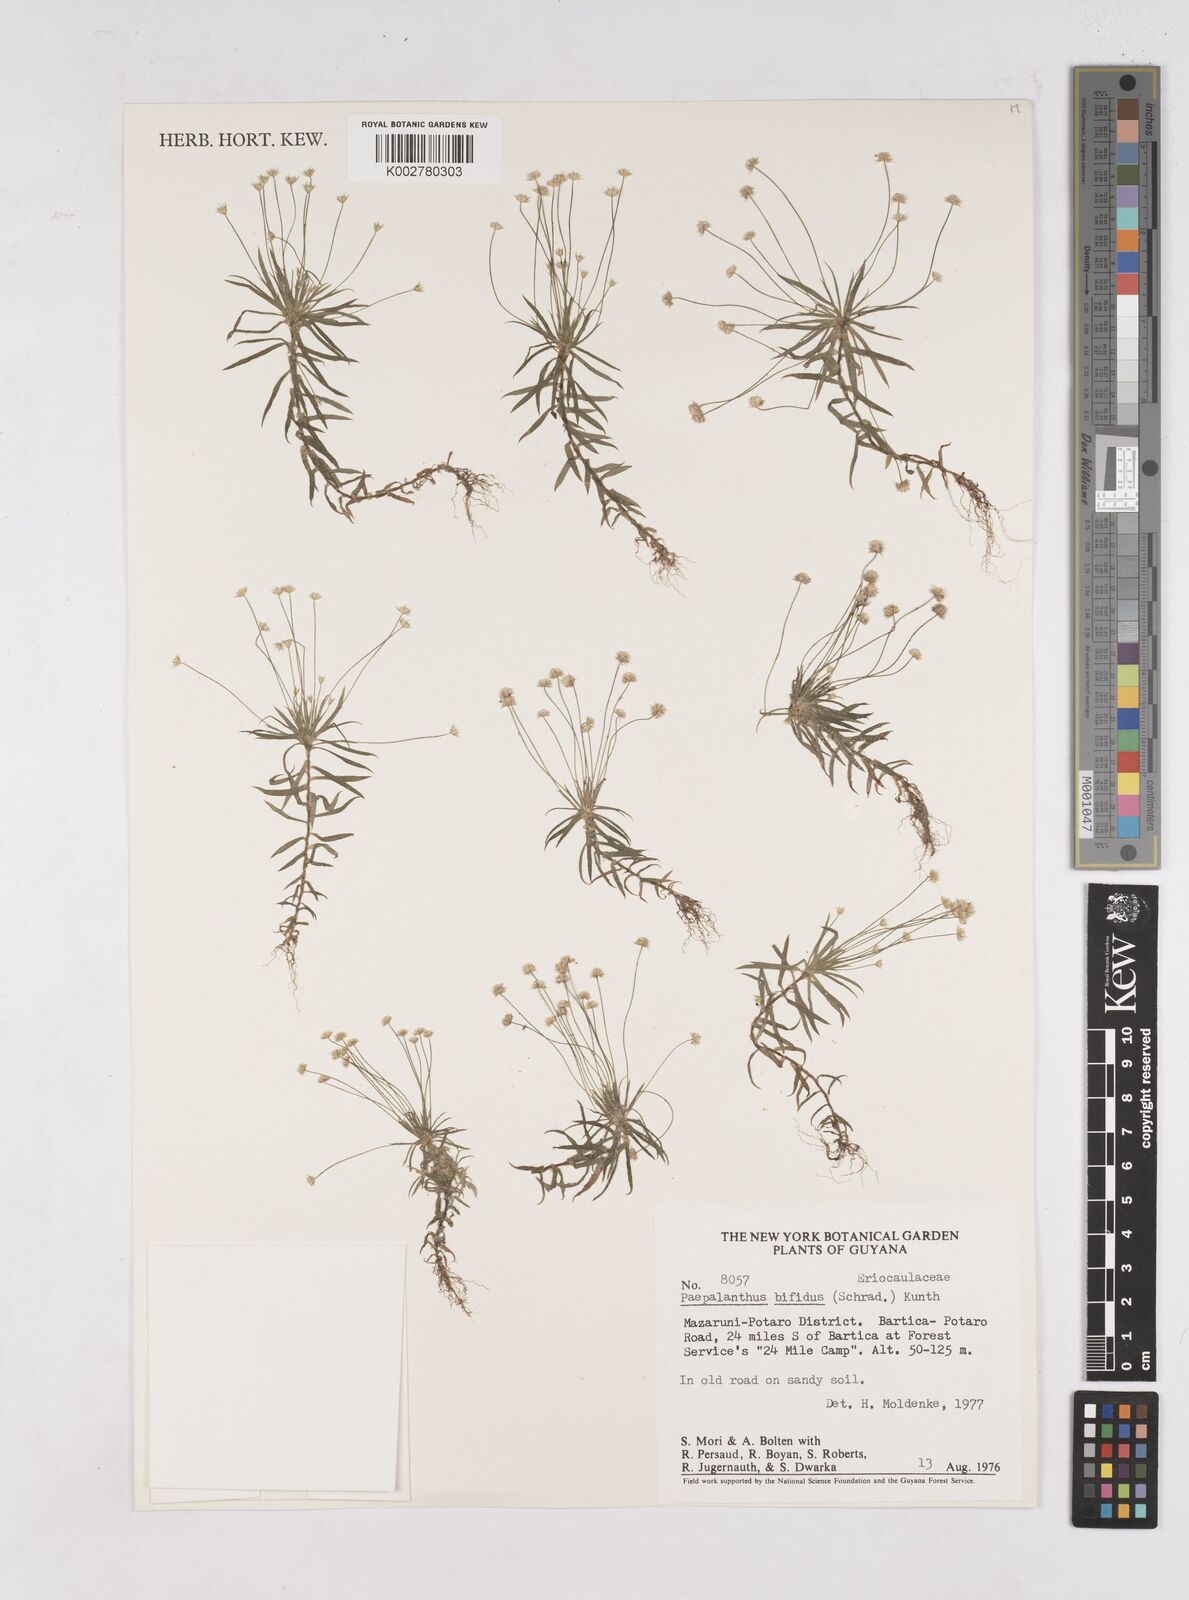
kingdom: Plantae
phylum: Tracheophyta
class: Liliopsida
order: Poales
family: Eriocaulaceae
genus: Paepalanthus
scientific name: Paepalanthus bifidus
